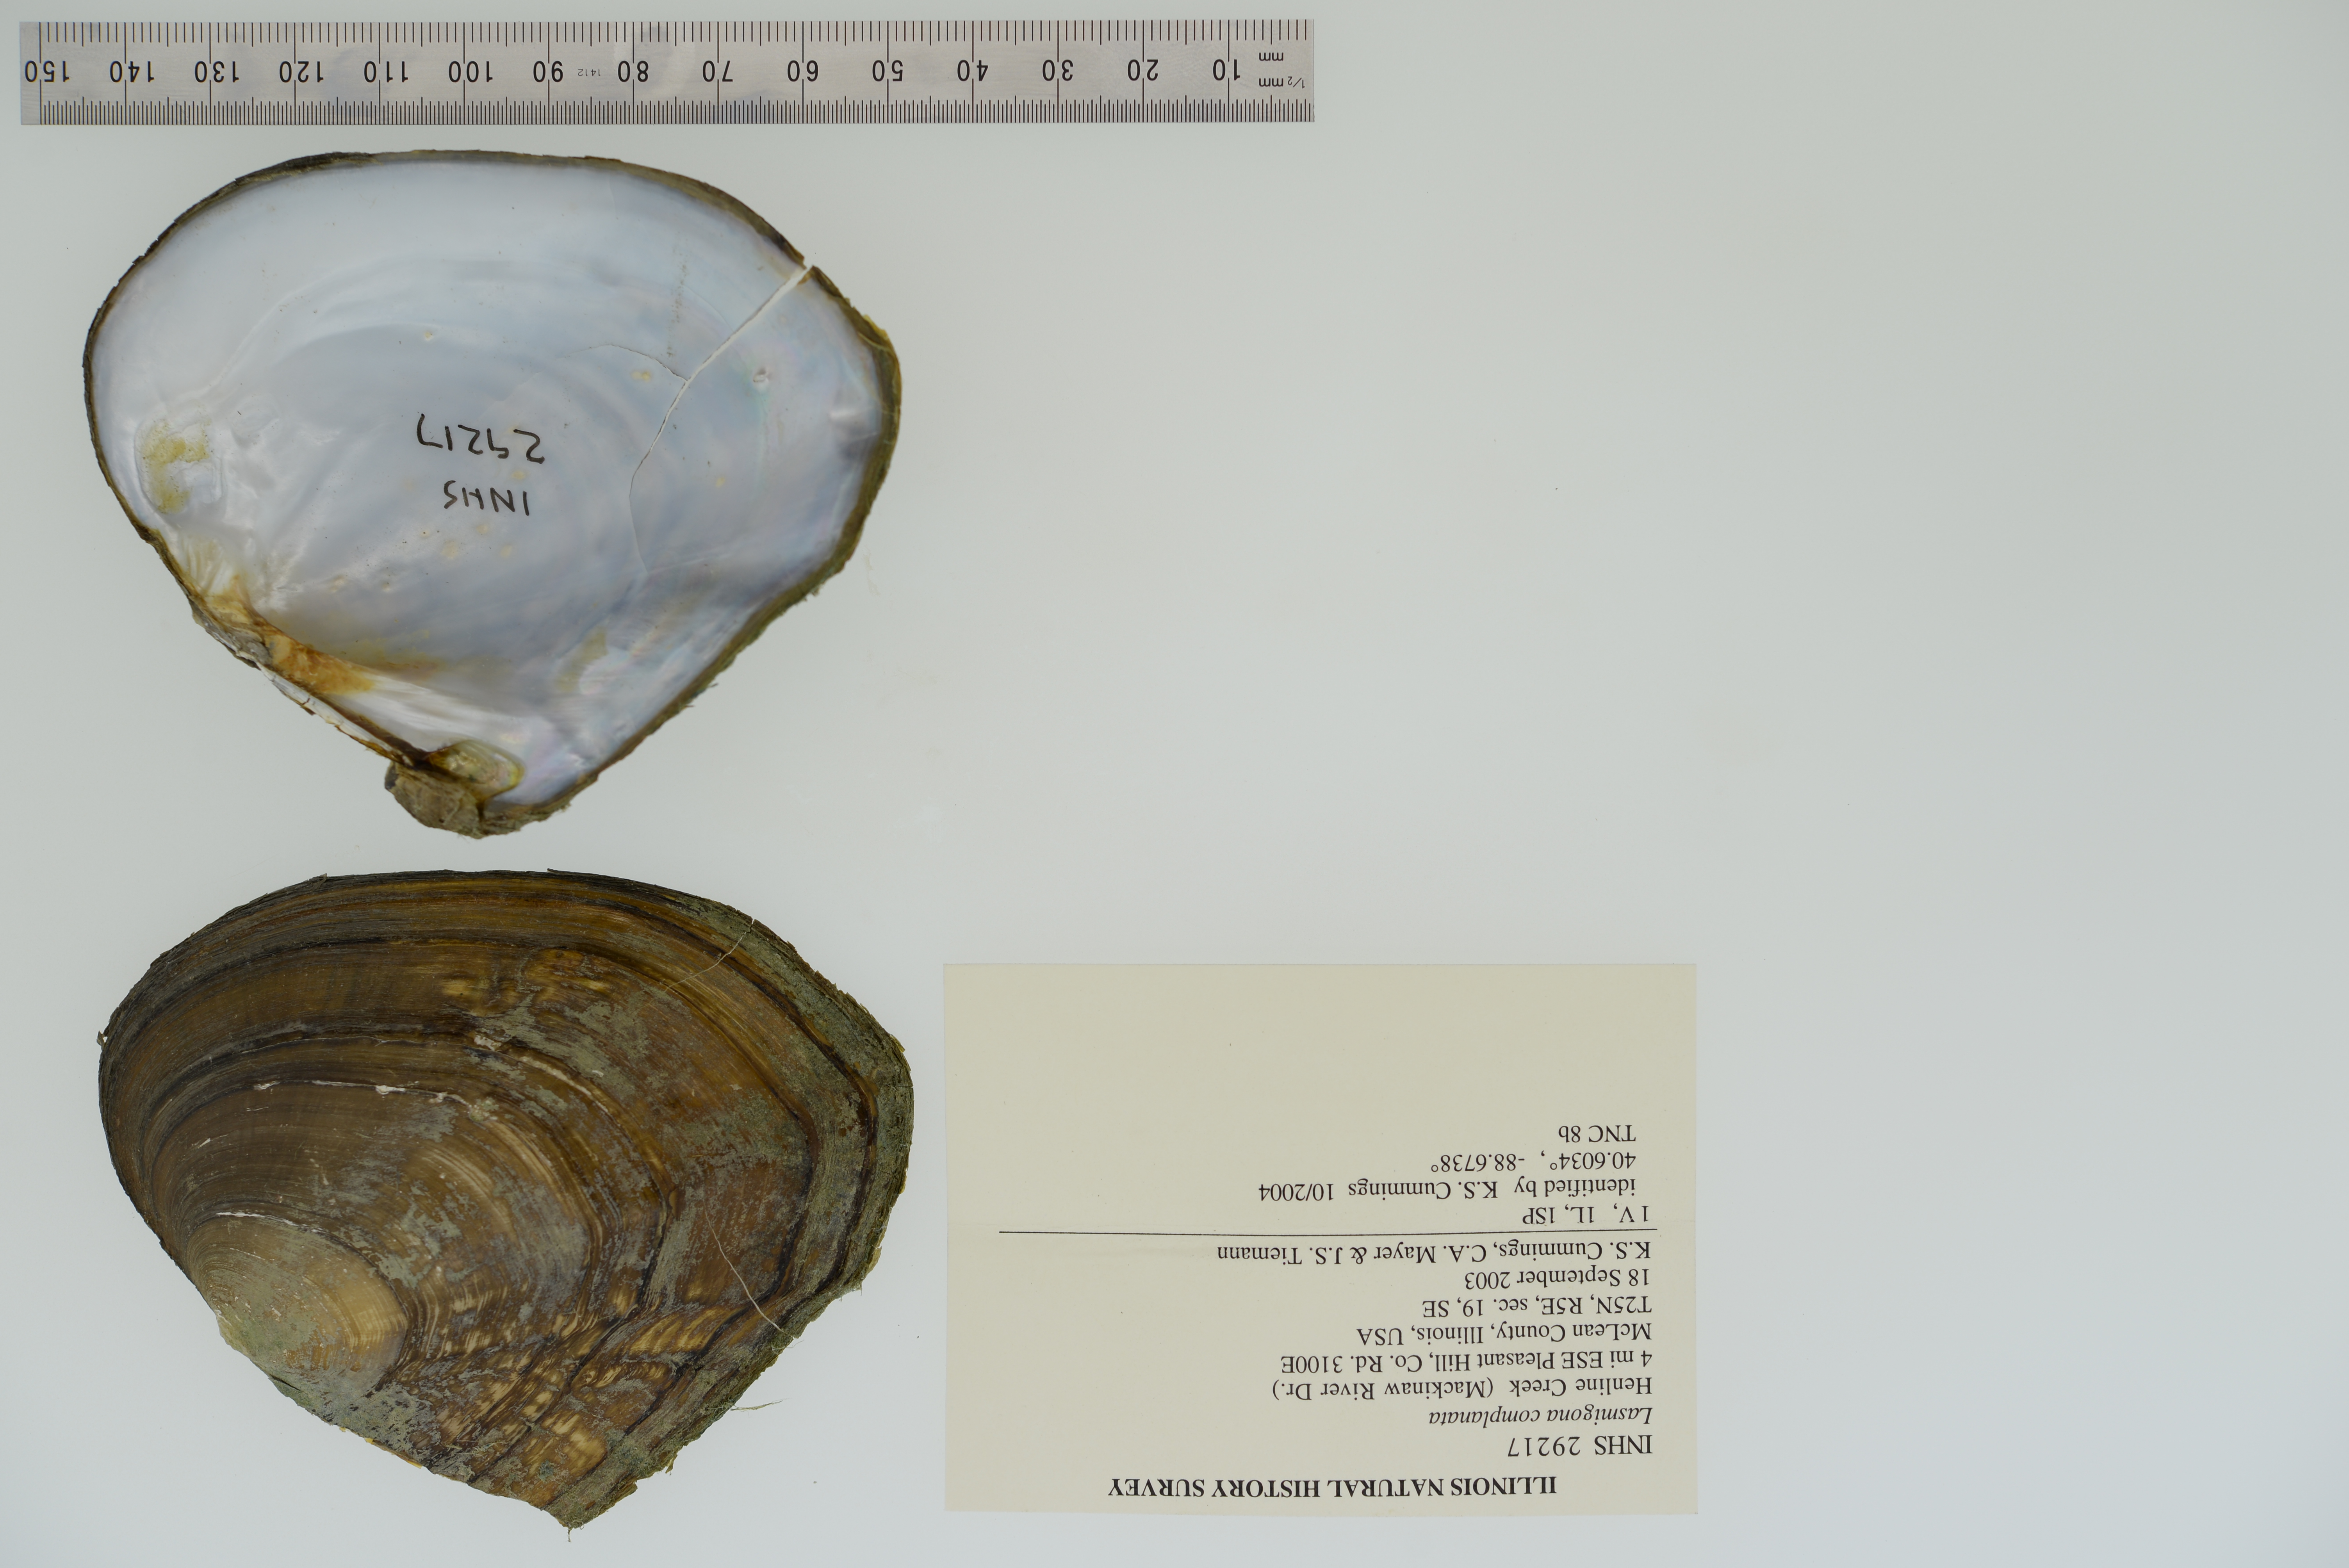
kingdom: Animalia
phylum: Mollusca
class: Bivalvia
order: Unionida
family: Unionidae
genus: Lasmigona
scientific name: Lasmigona complanata
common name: White heelsplitter
